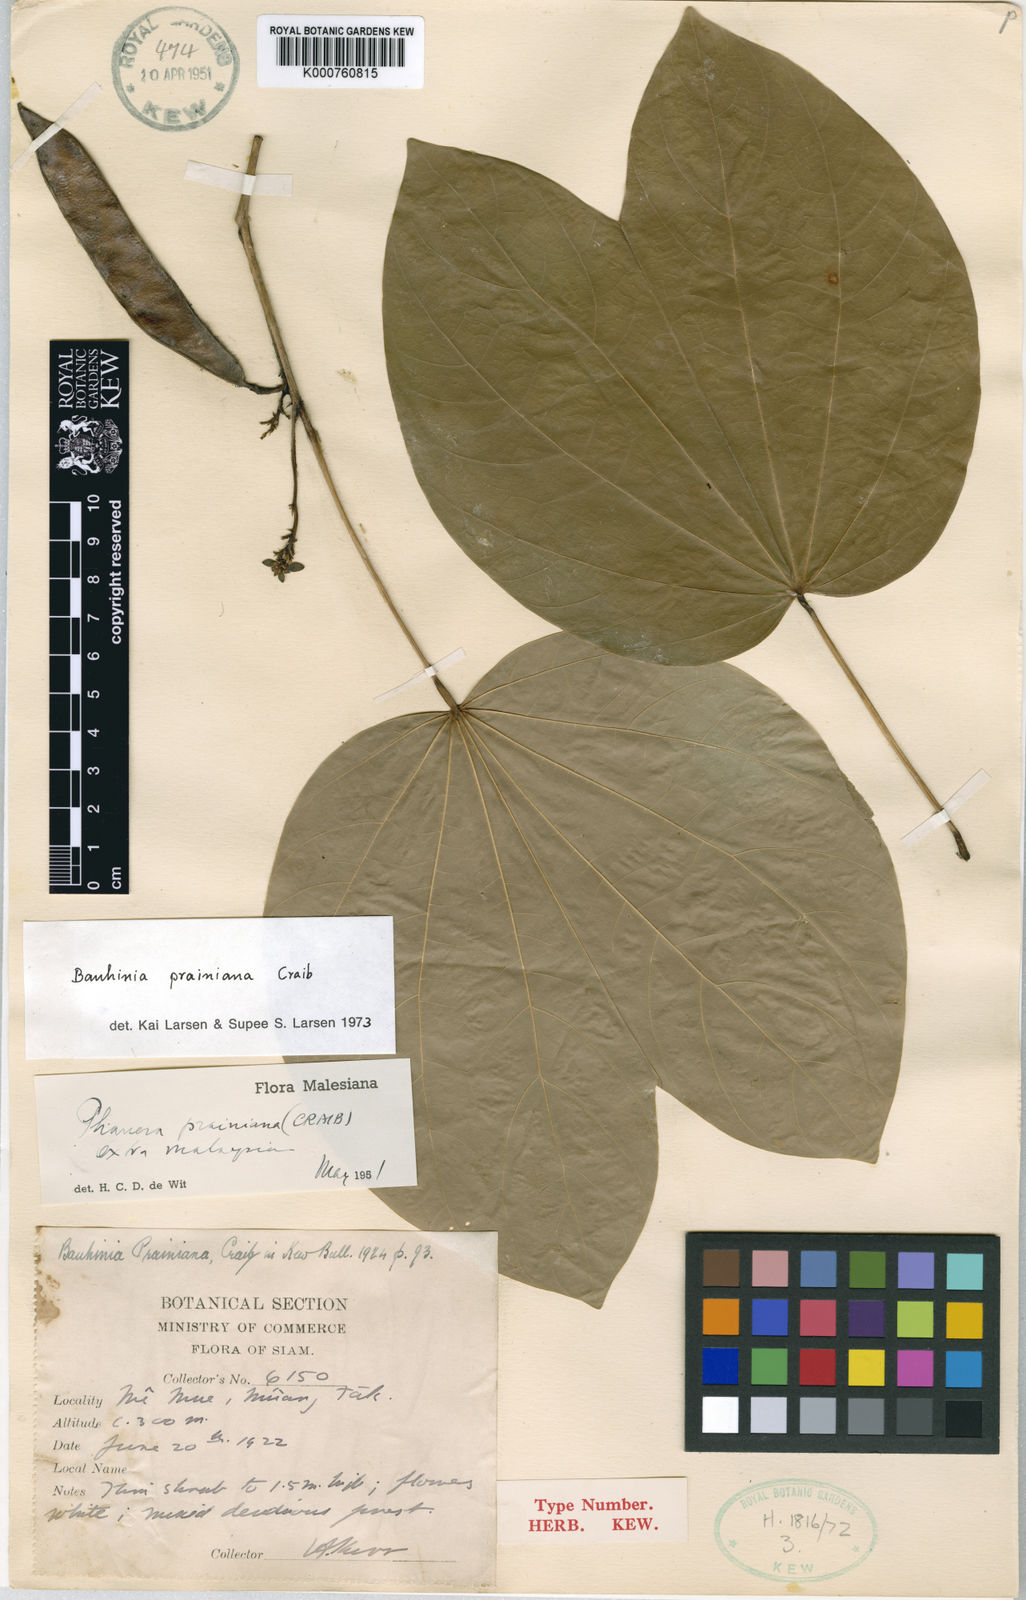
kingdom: Plantae
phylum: Tracheophyta
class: Magnoliopsida
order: Fabales
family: Fabaceae
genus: Bauhinia
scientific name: Bauhinia prainiana
